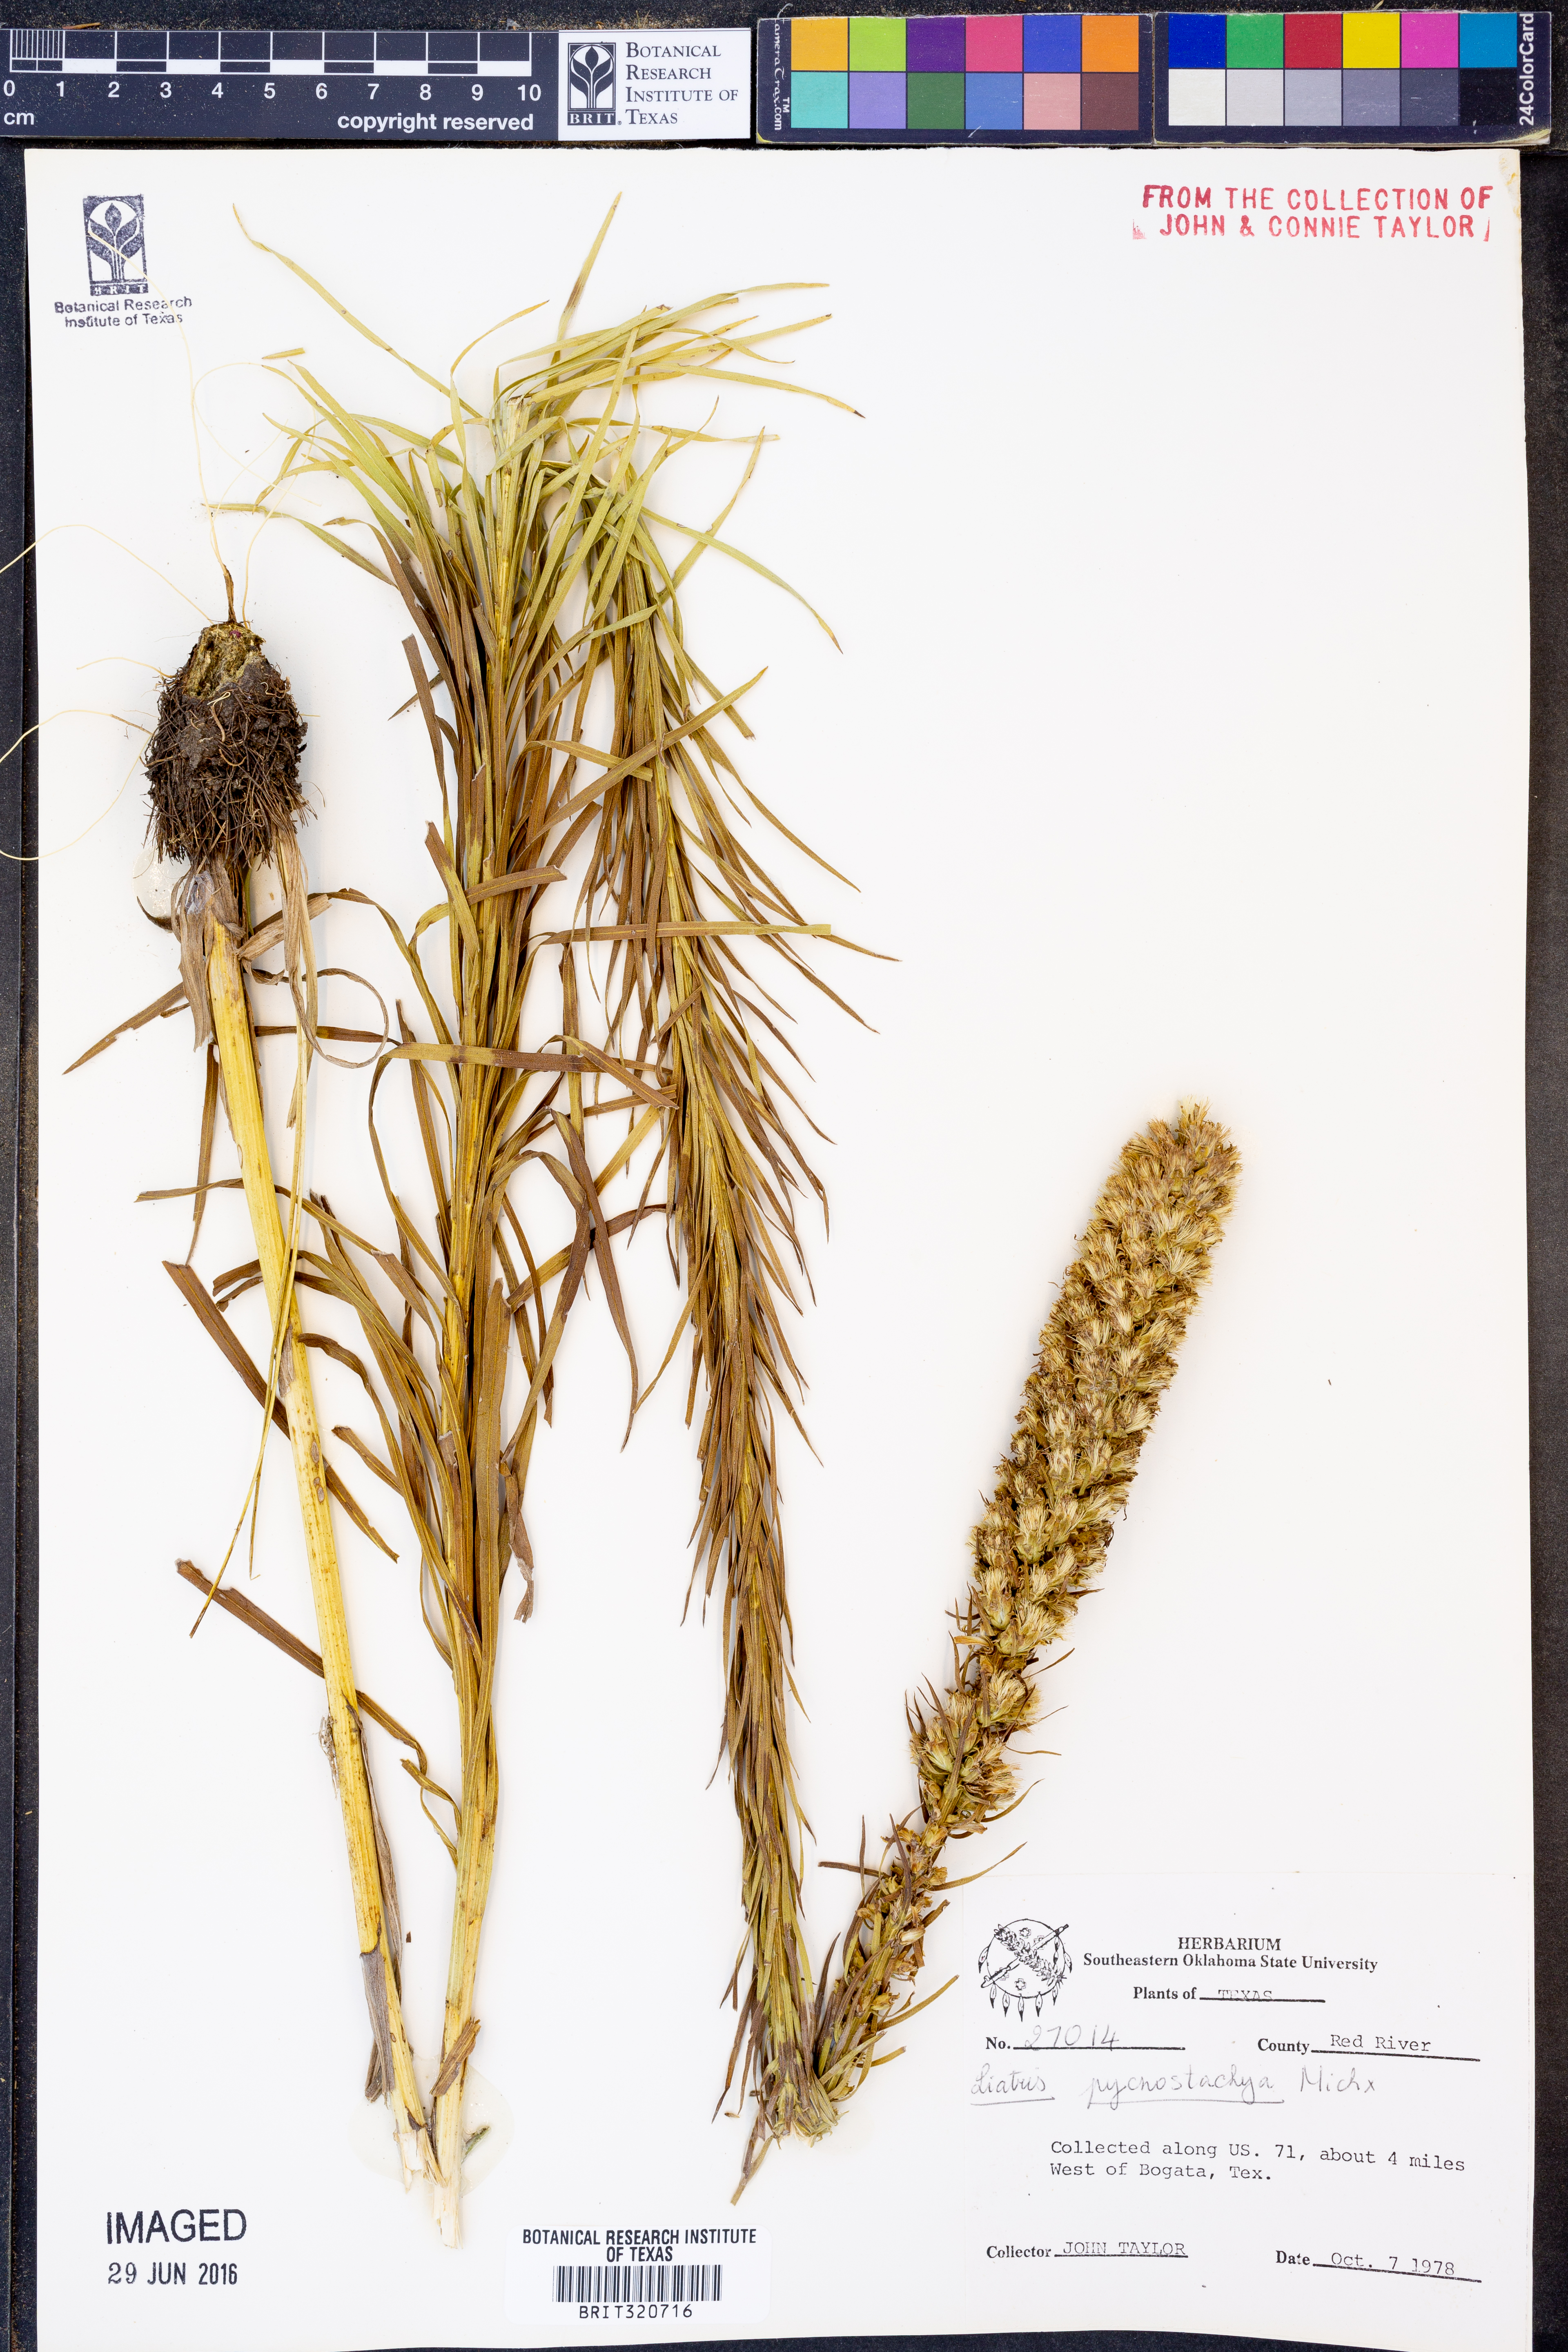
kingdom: Plantae
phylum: Tracheophyta
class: Magnoliopsida
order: Asterales
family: Asteraceae
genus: Liatris
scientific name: Liatris pycnostachya
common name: Cattail gayfeather
